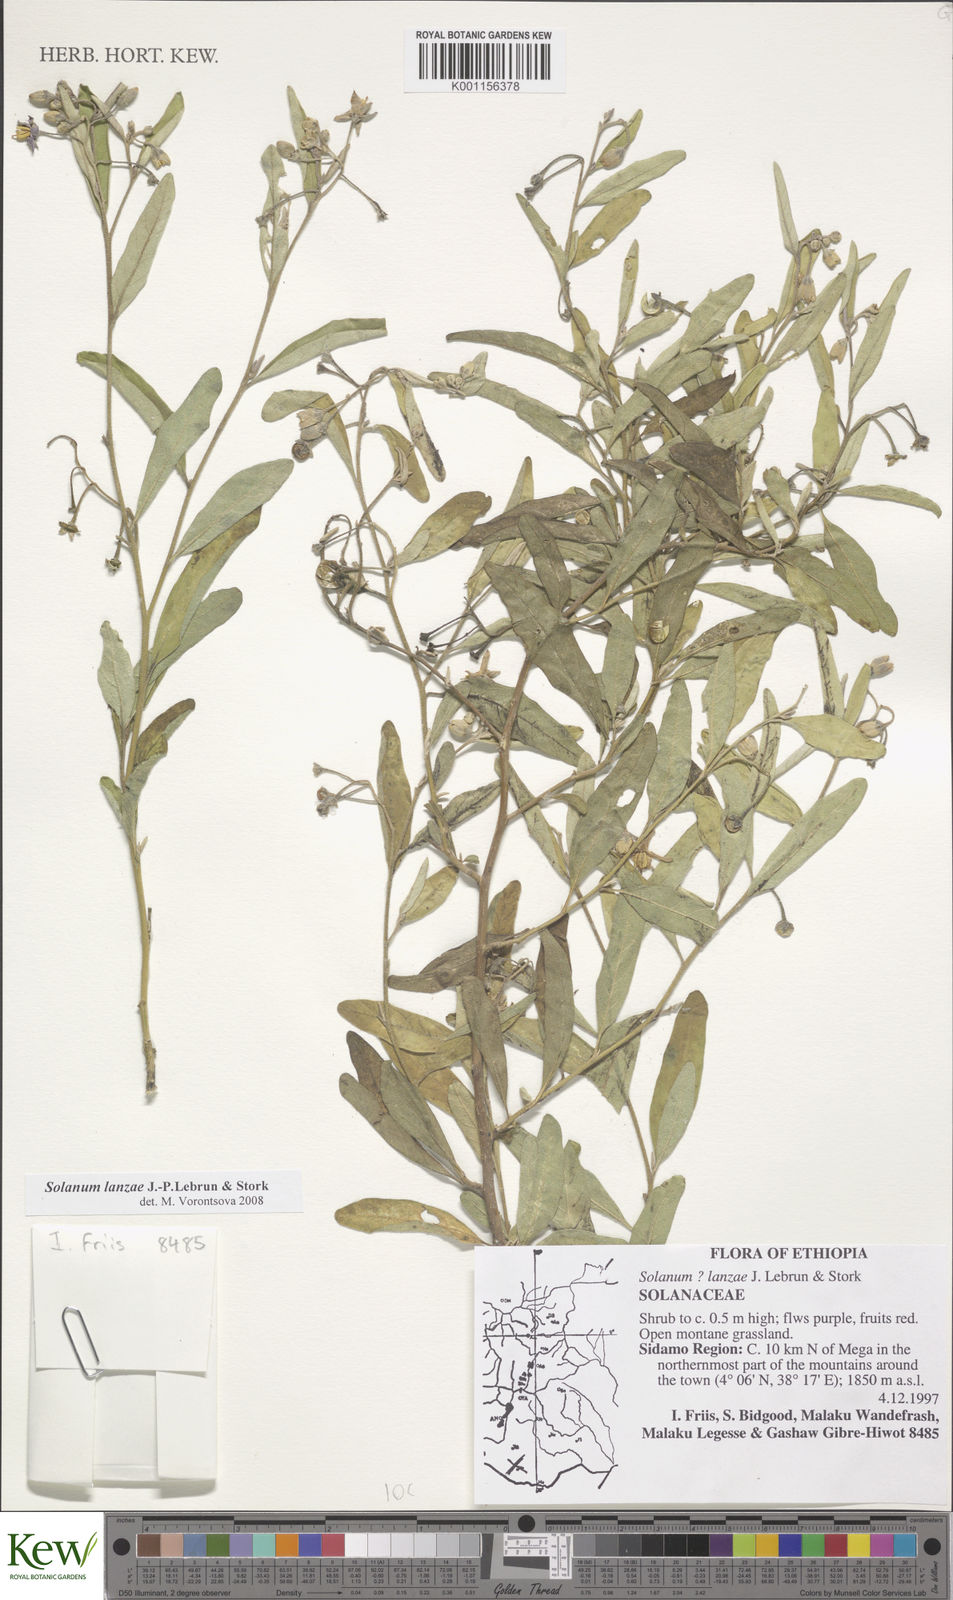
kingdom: Plantae
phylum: Tracheophyta
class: Magnoliopsida
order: Solanales
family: Solanaceae
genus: Solanum
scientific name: Solanum lanzae
